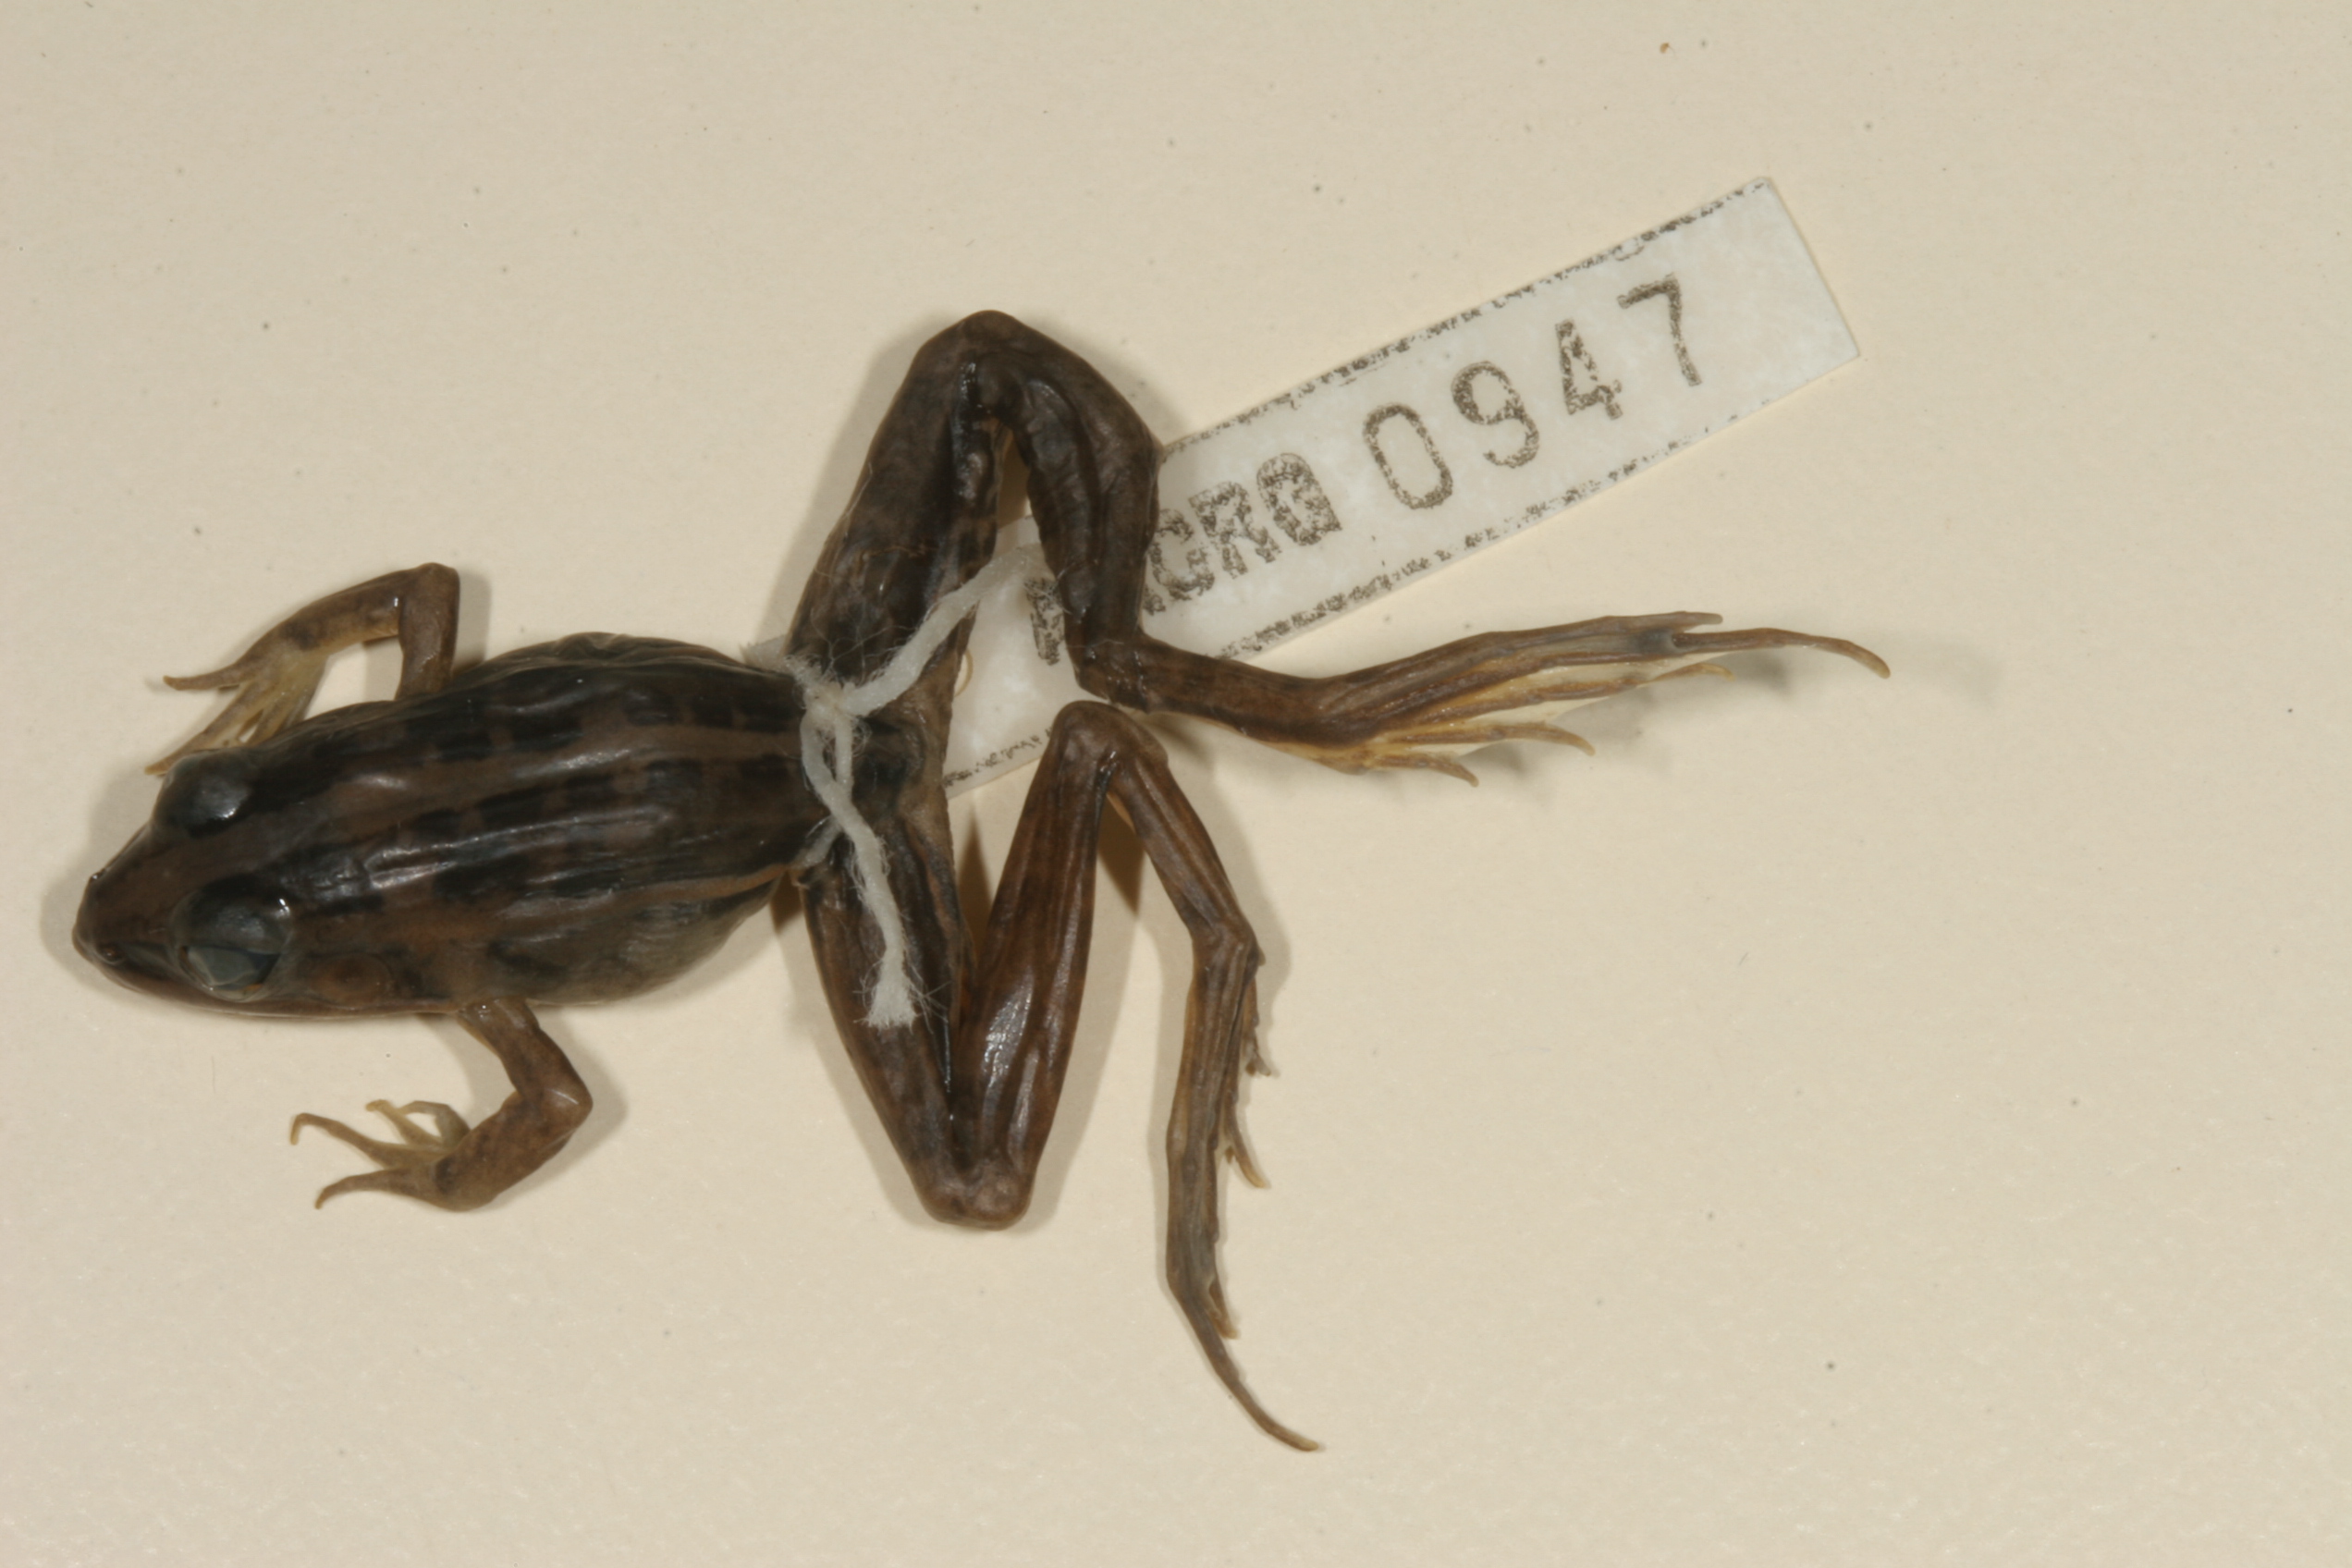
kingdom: Animalia
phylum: Chordata
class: Amphibia
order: Anura
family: Ptychadenidae
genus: Ptychadena
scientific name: Ptychadena mascareniensis
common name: Mascarene grass frog
